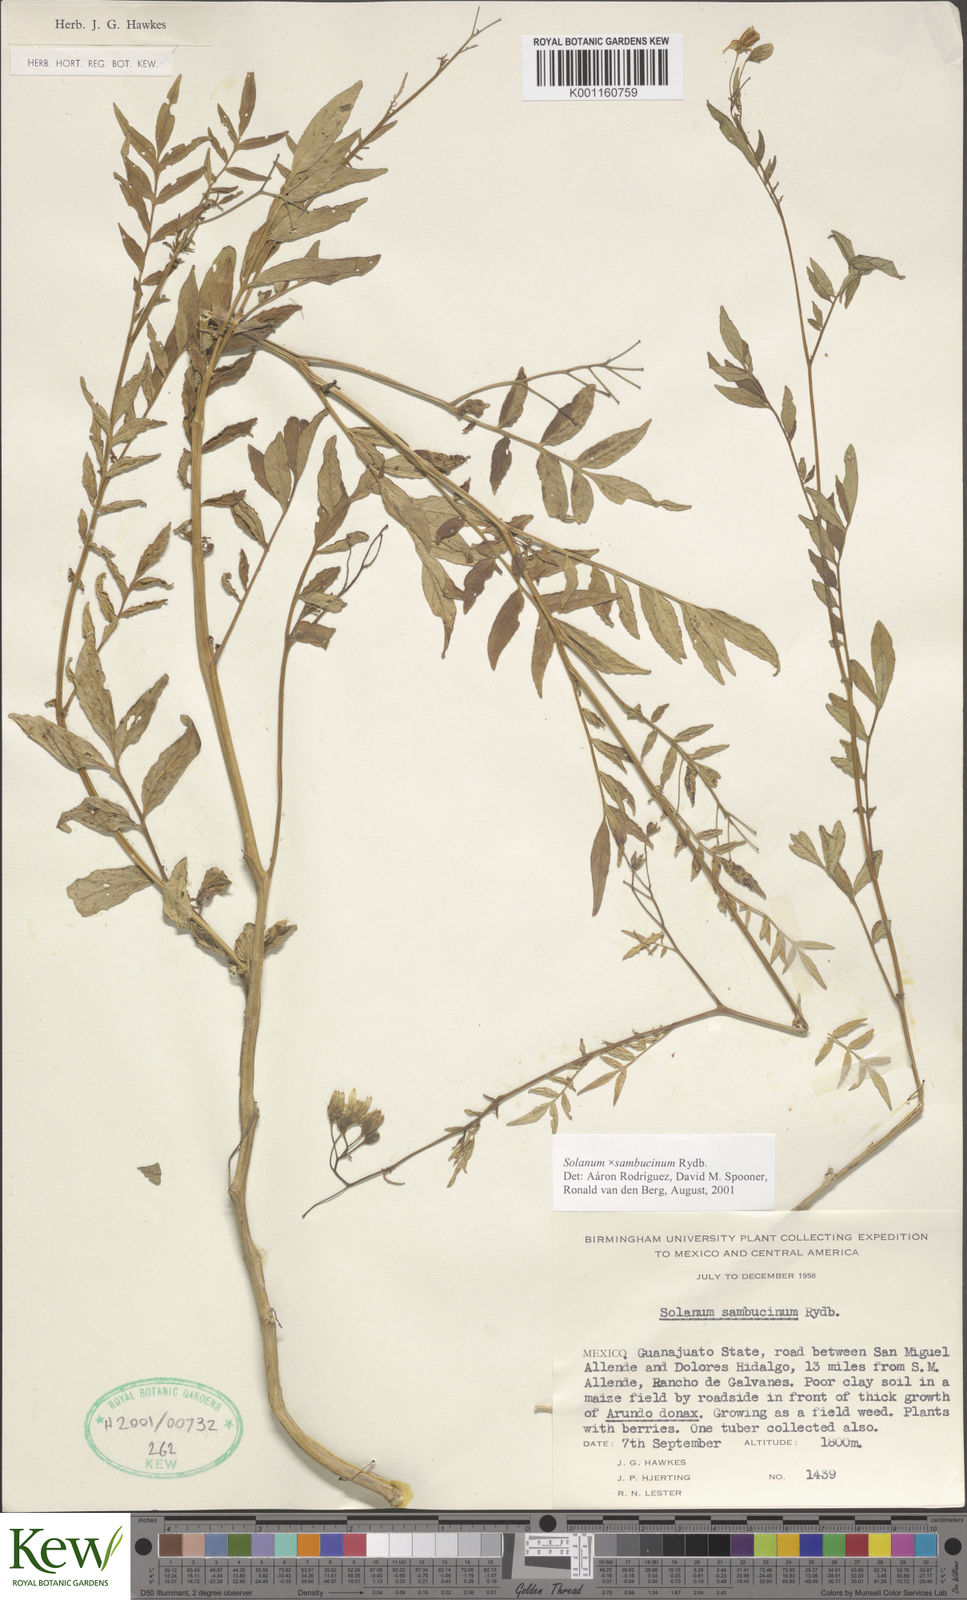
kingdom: Plantae
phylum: Tracheophyta
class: Magnoliopsida
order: Solanales
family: Solanaceae
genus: Solanum
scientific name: Solanum sambucinum
